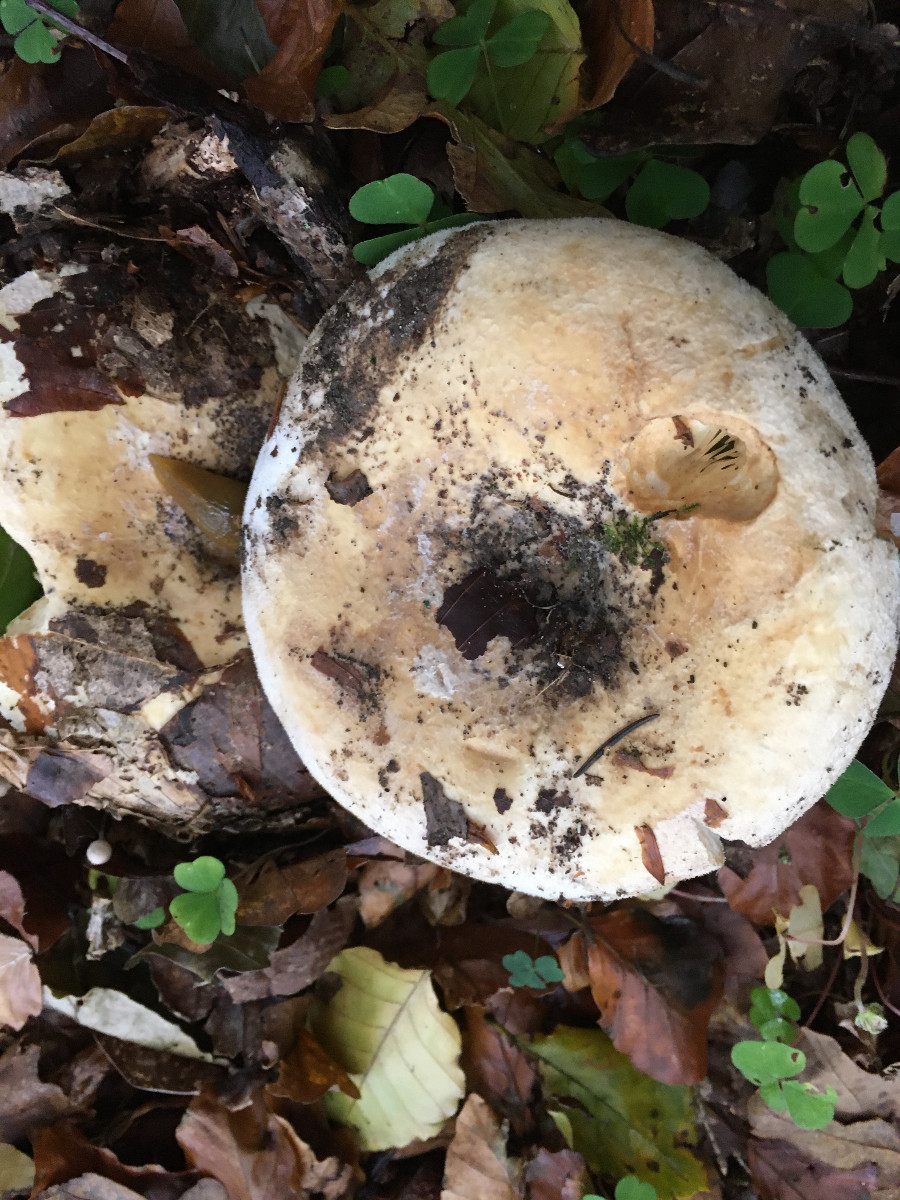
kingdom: Fungi
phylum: Basidiomycota
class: Agaricomycetes
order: Russulales
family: Russulaceae
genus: Lactifluus
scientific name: Lactifluus vellereus
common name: hvidfiltet mælkehat
